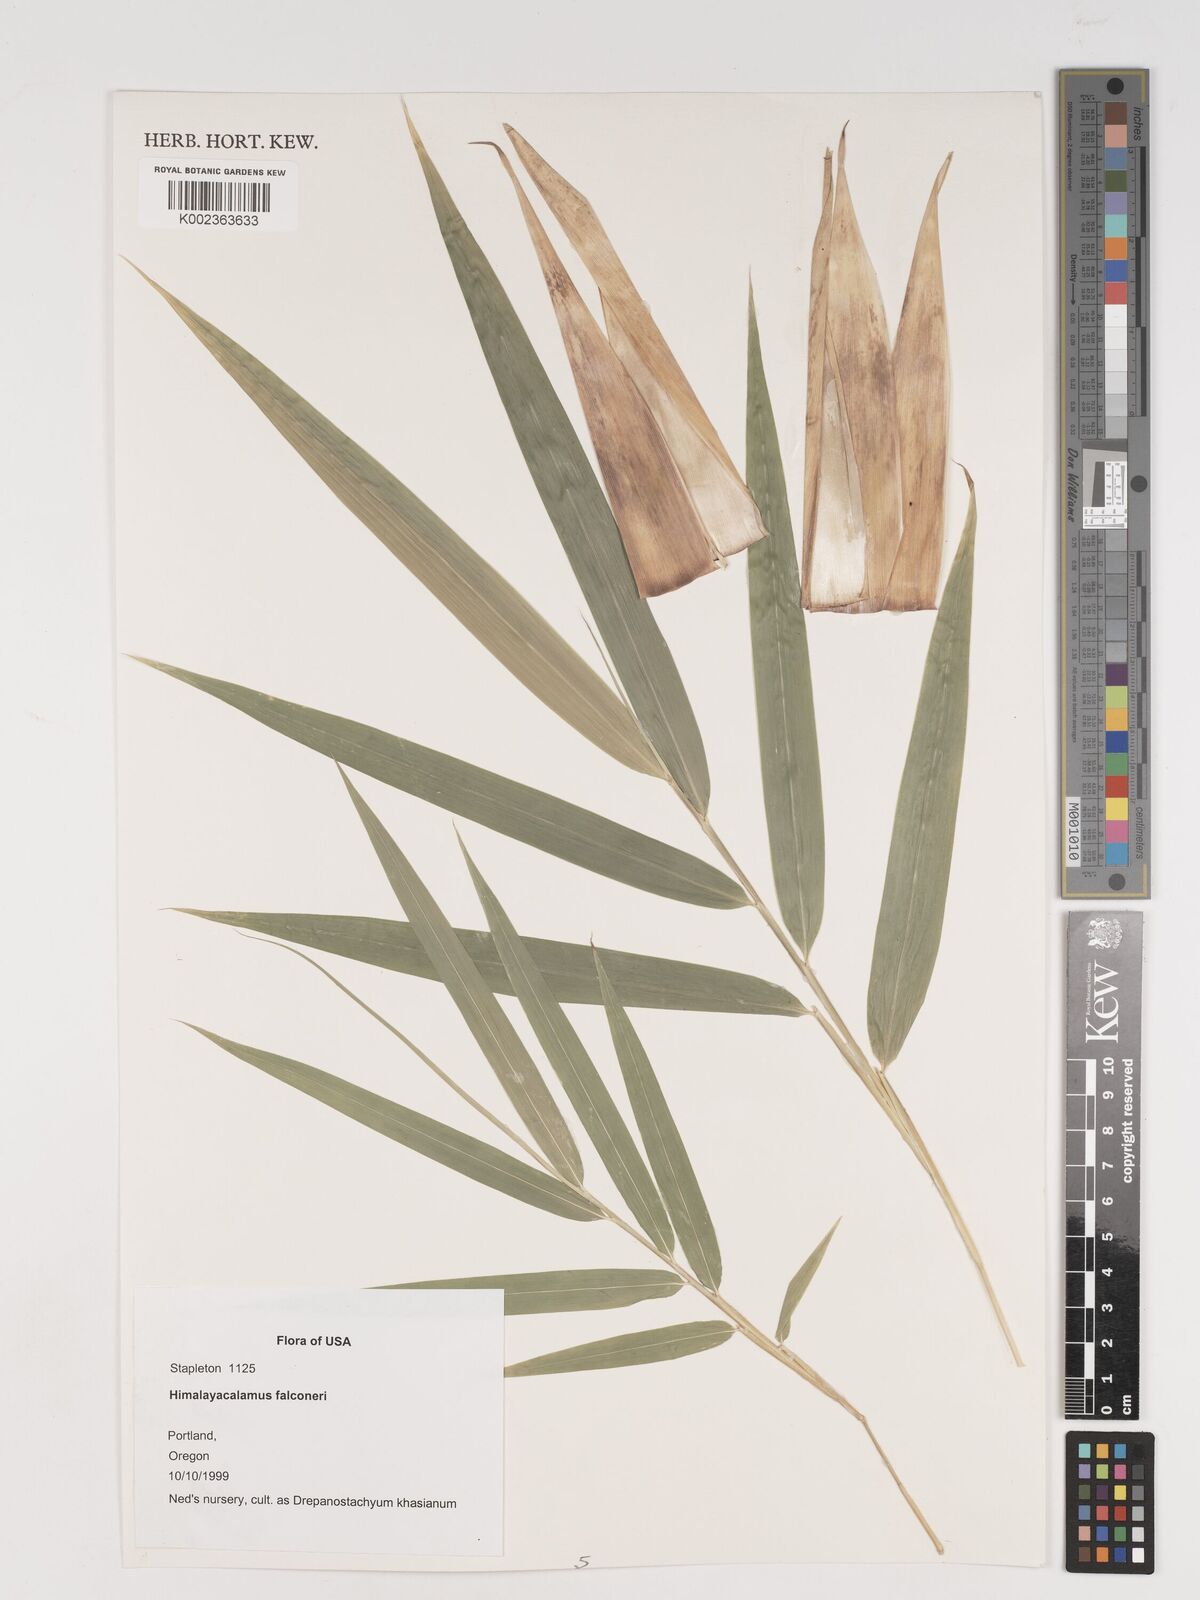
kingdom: Plantae
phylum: Tracheophyta
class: Liliopsida
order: Poales
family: Poaceae
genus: Himalayacalamus
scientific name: Himalayacalamus falconeri
